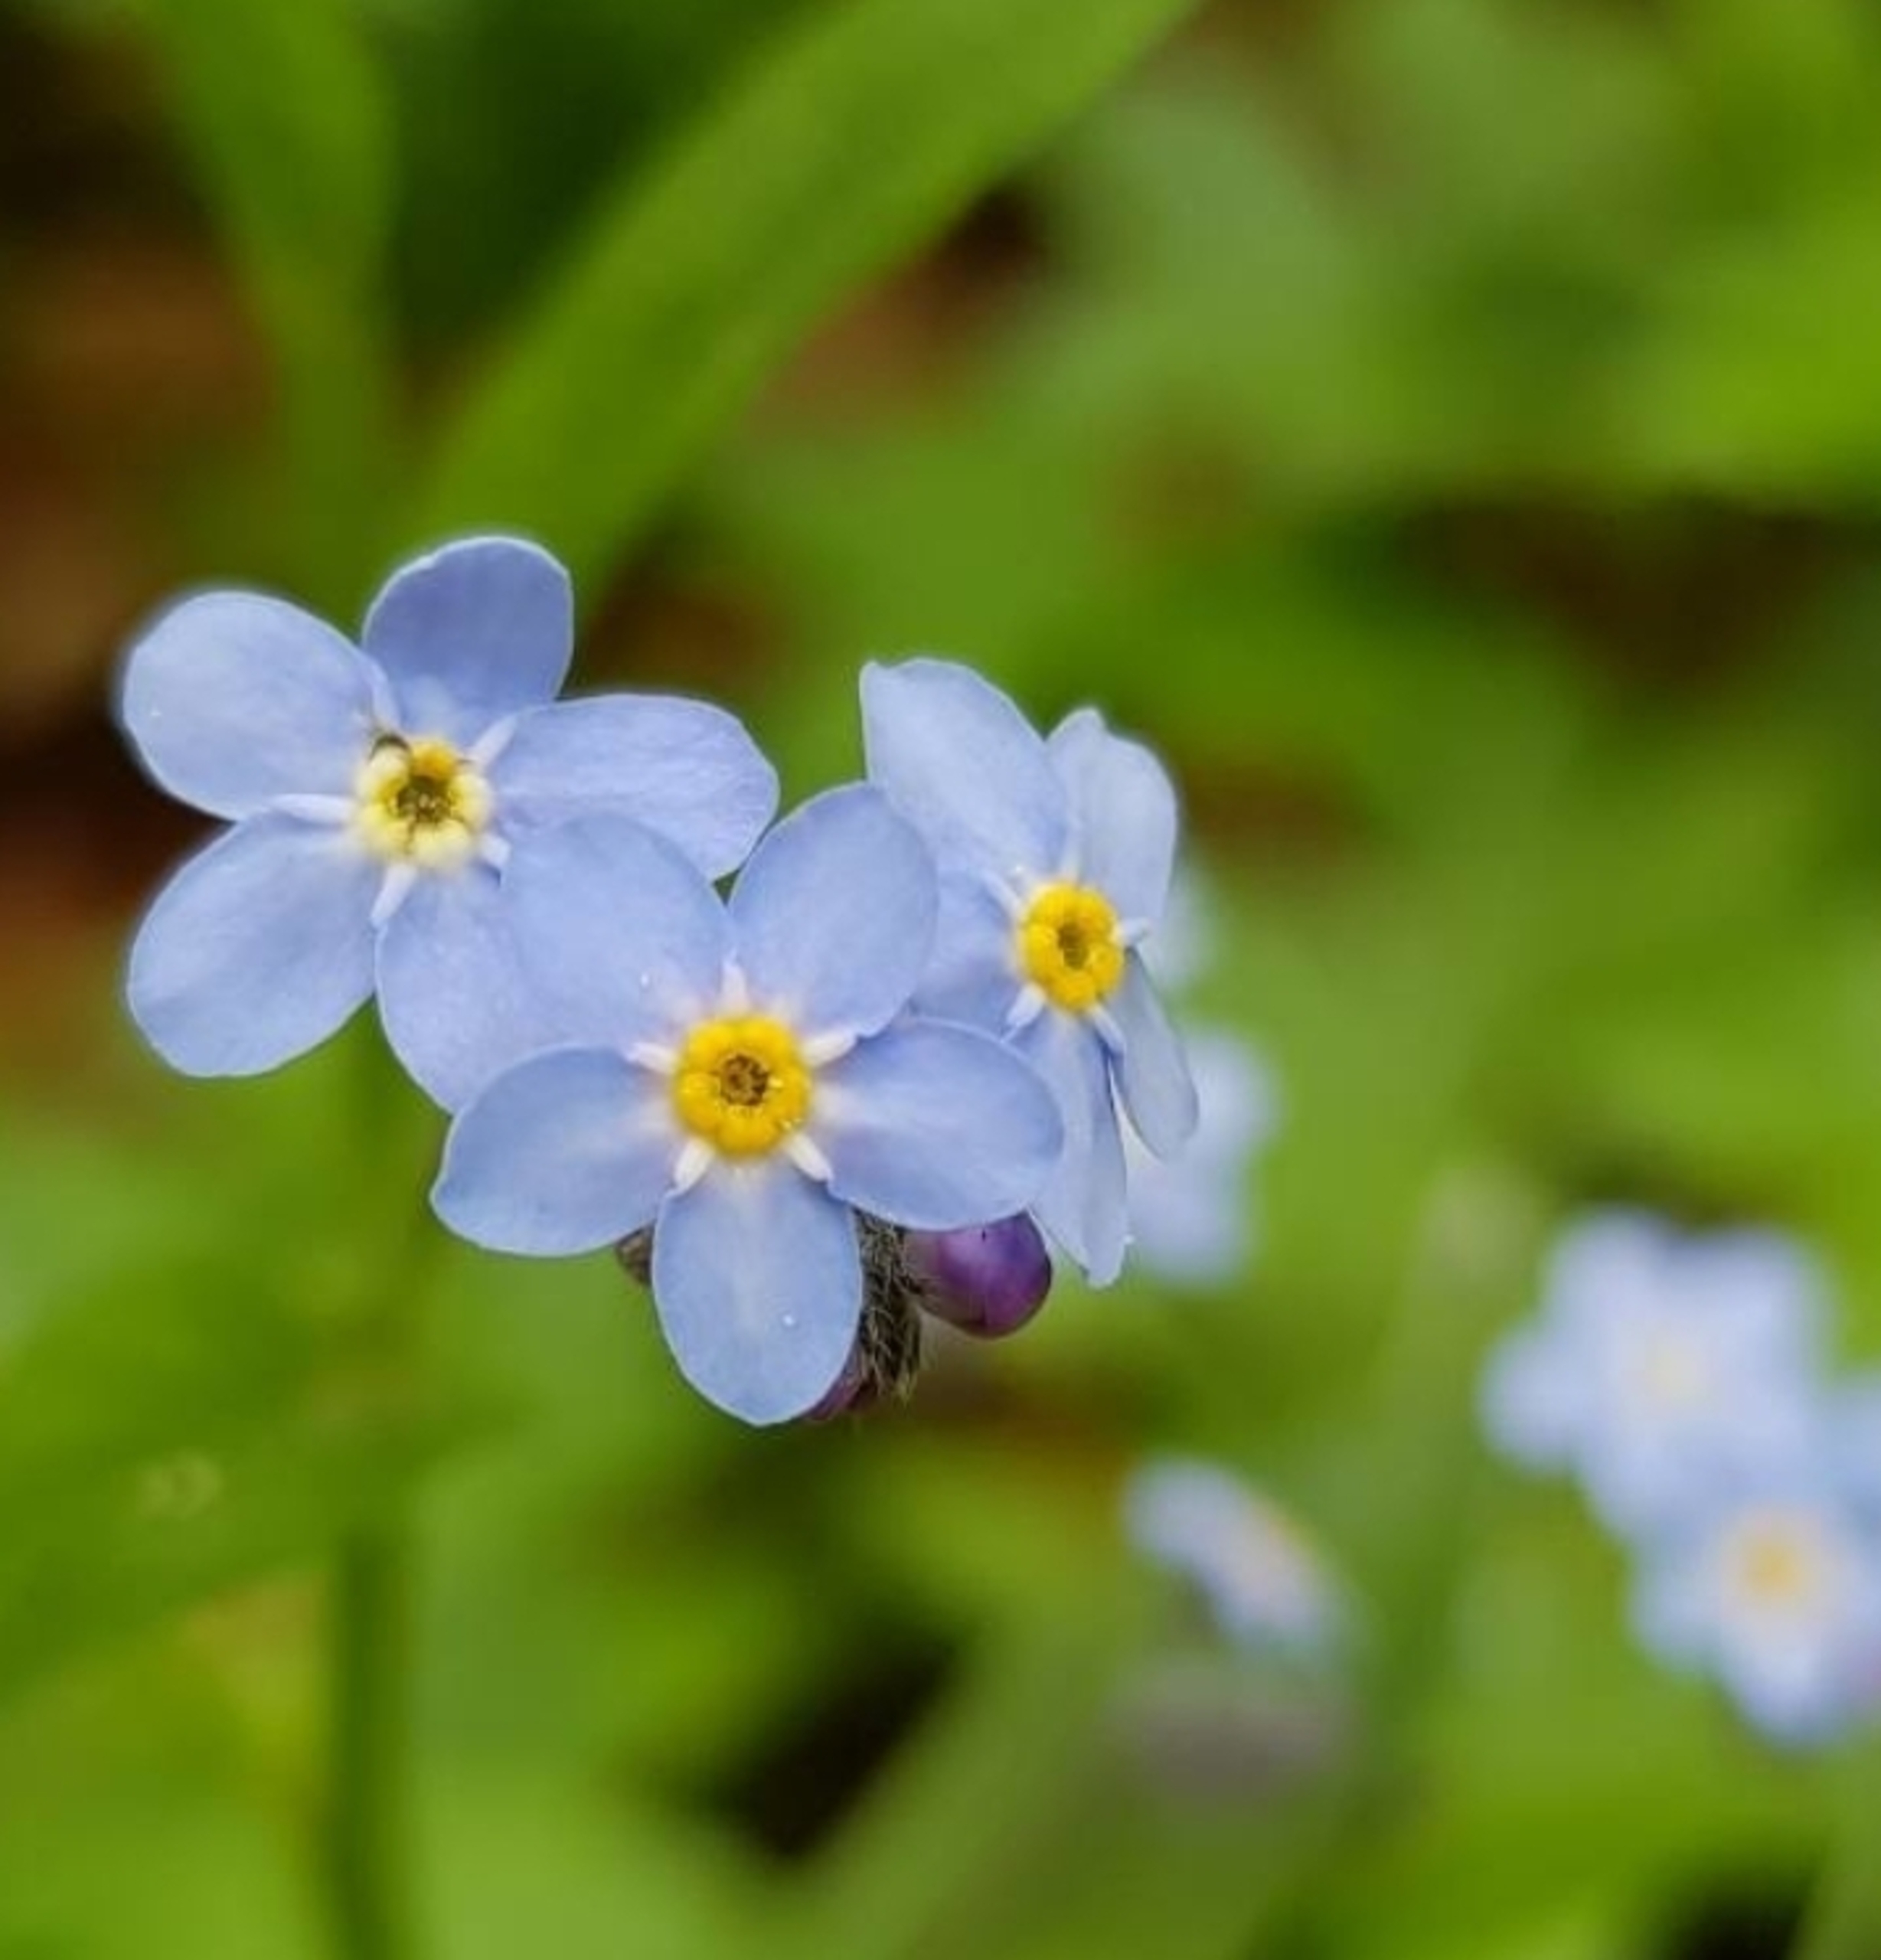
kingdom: Plantae
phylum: Tracheophyta
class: Magnoliopsida
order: Boraginales
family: Boraginaceae
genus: Myosotis
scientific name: Myosotis scorpioides
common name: Eng-forglemmigej
